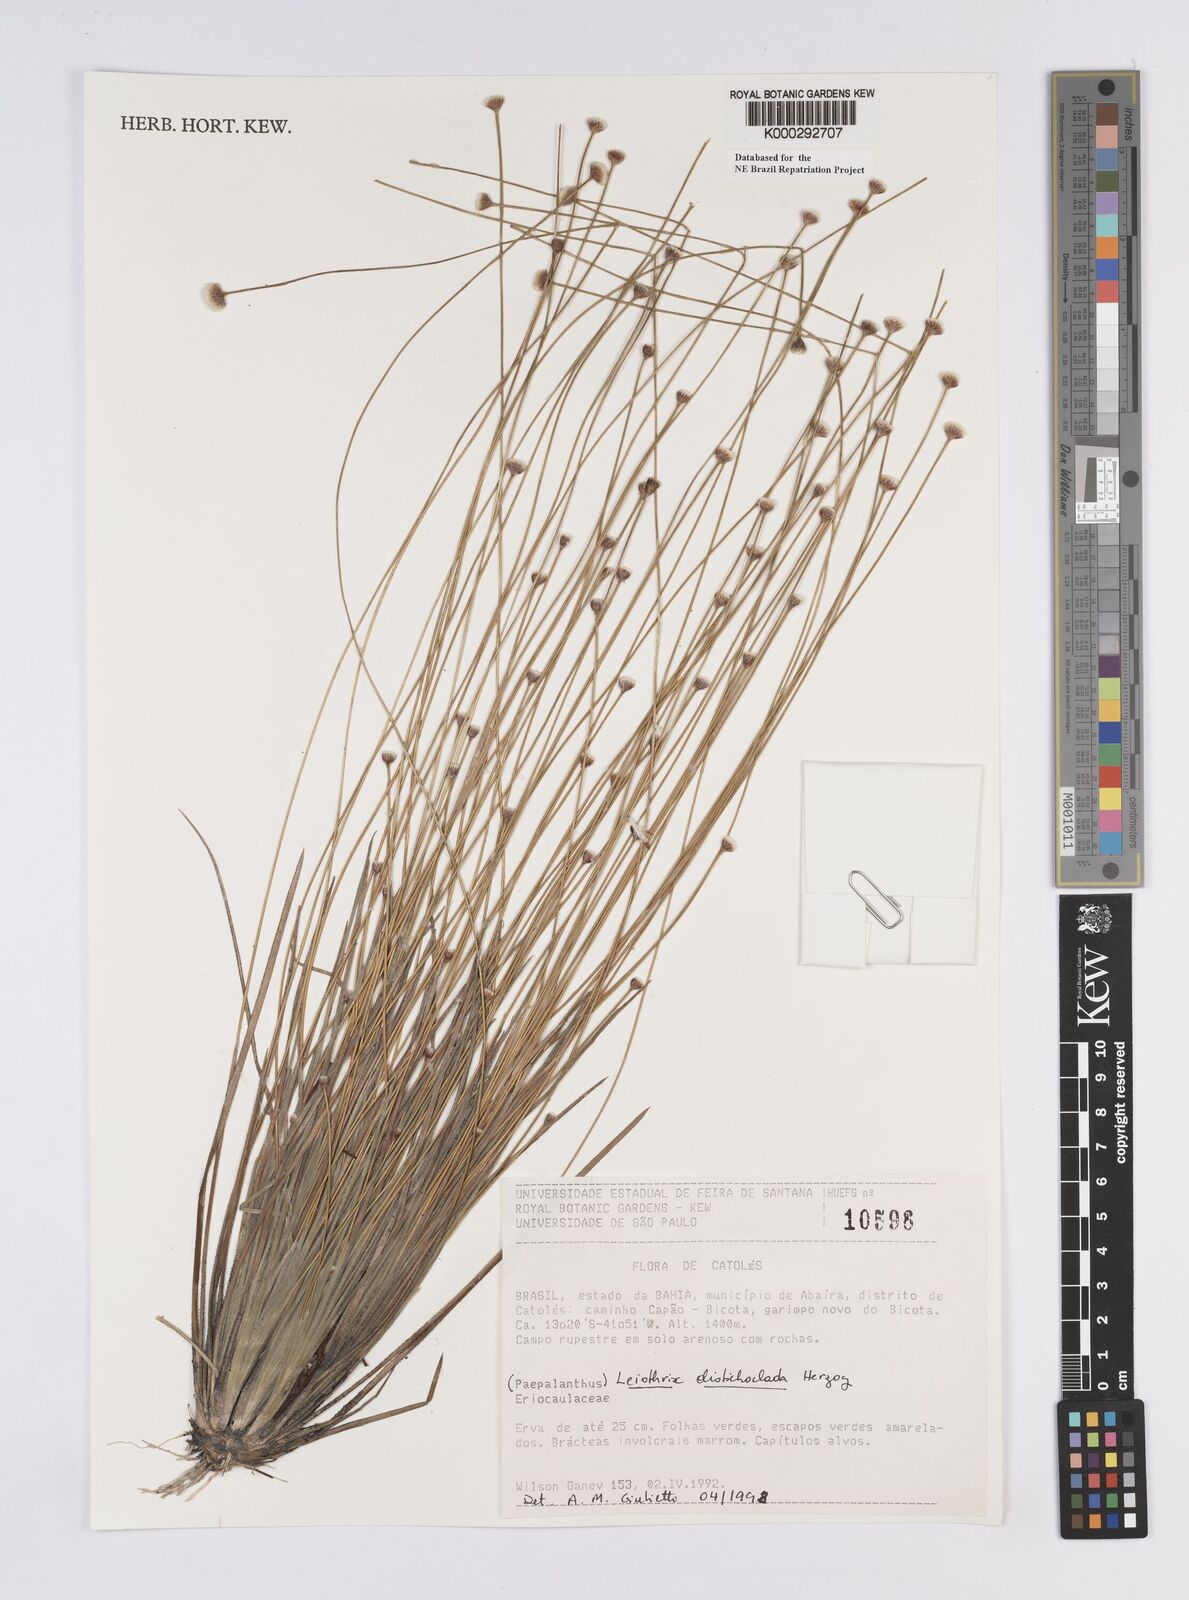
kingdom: Plantae
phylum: Tracheophyta
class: Liliopsida
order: Poales
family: Eriocaulaceae
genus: Leiothrix
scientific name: Leiothrix distichoclada
